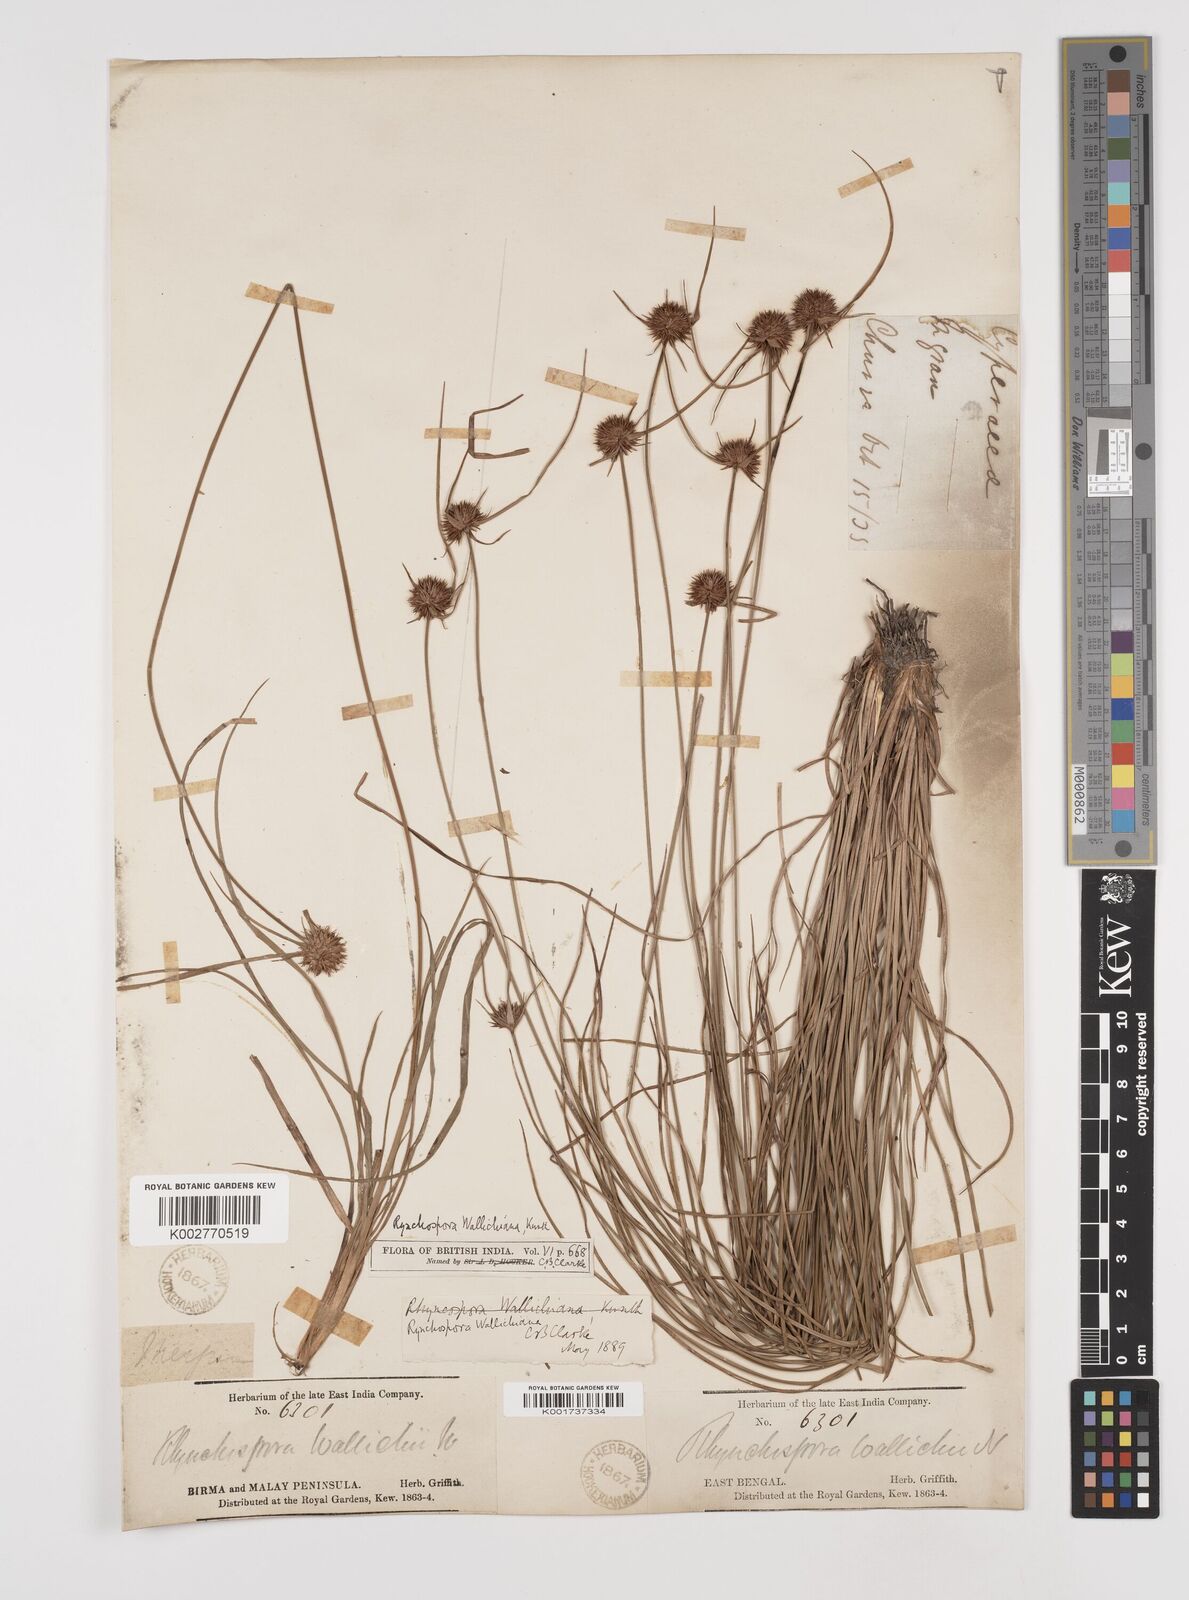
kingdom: Plantae
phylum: Tracheophyta
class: Liliopsida
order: Poales
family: Cyperaceae
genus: Rhynchospora
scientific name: Rhynchospora rubra
